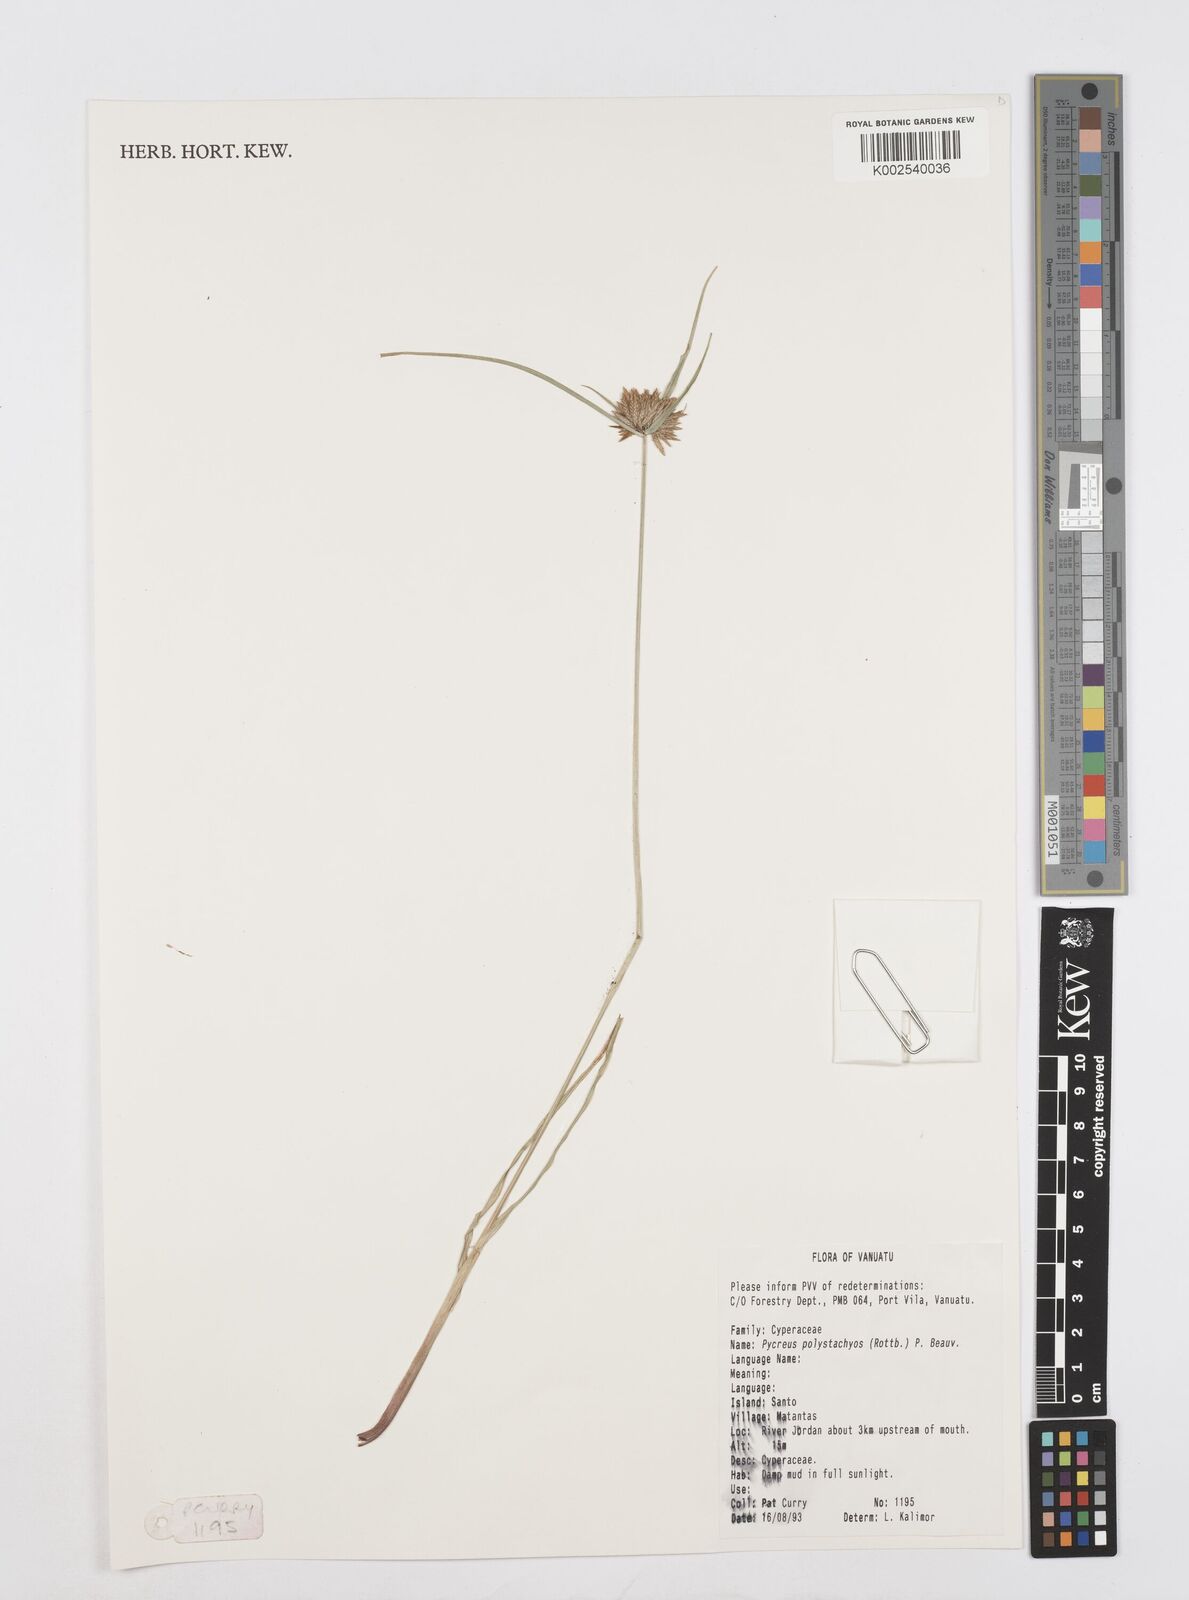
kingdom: Plantae
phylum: Tracheophyta
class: Liliopsida
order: Poales
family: Cyperaceae
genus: Cyperus
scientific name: Cyperus polystachyos
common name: Bunchy flat sedge
